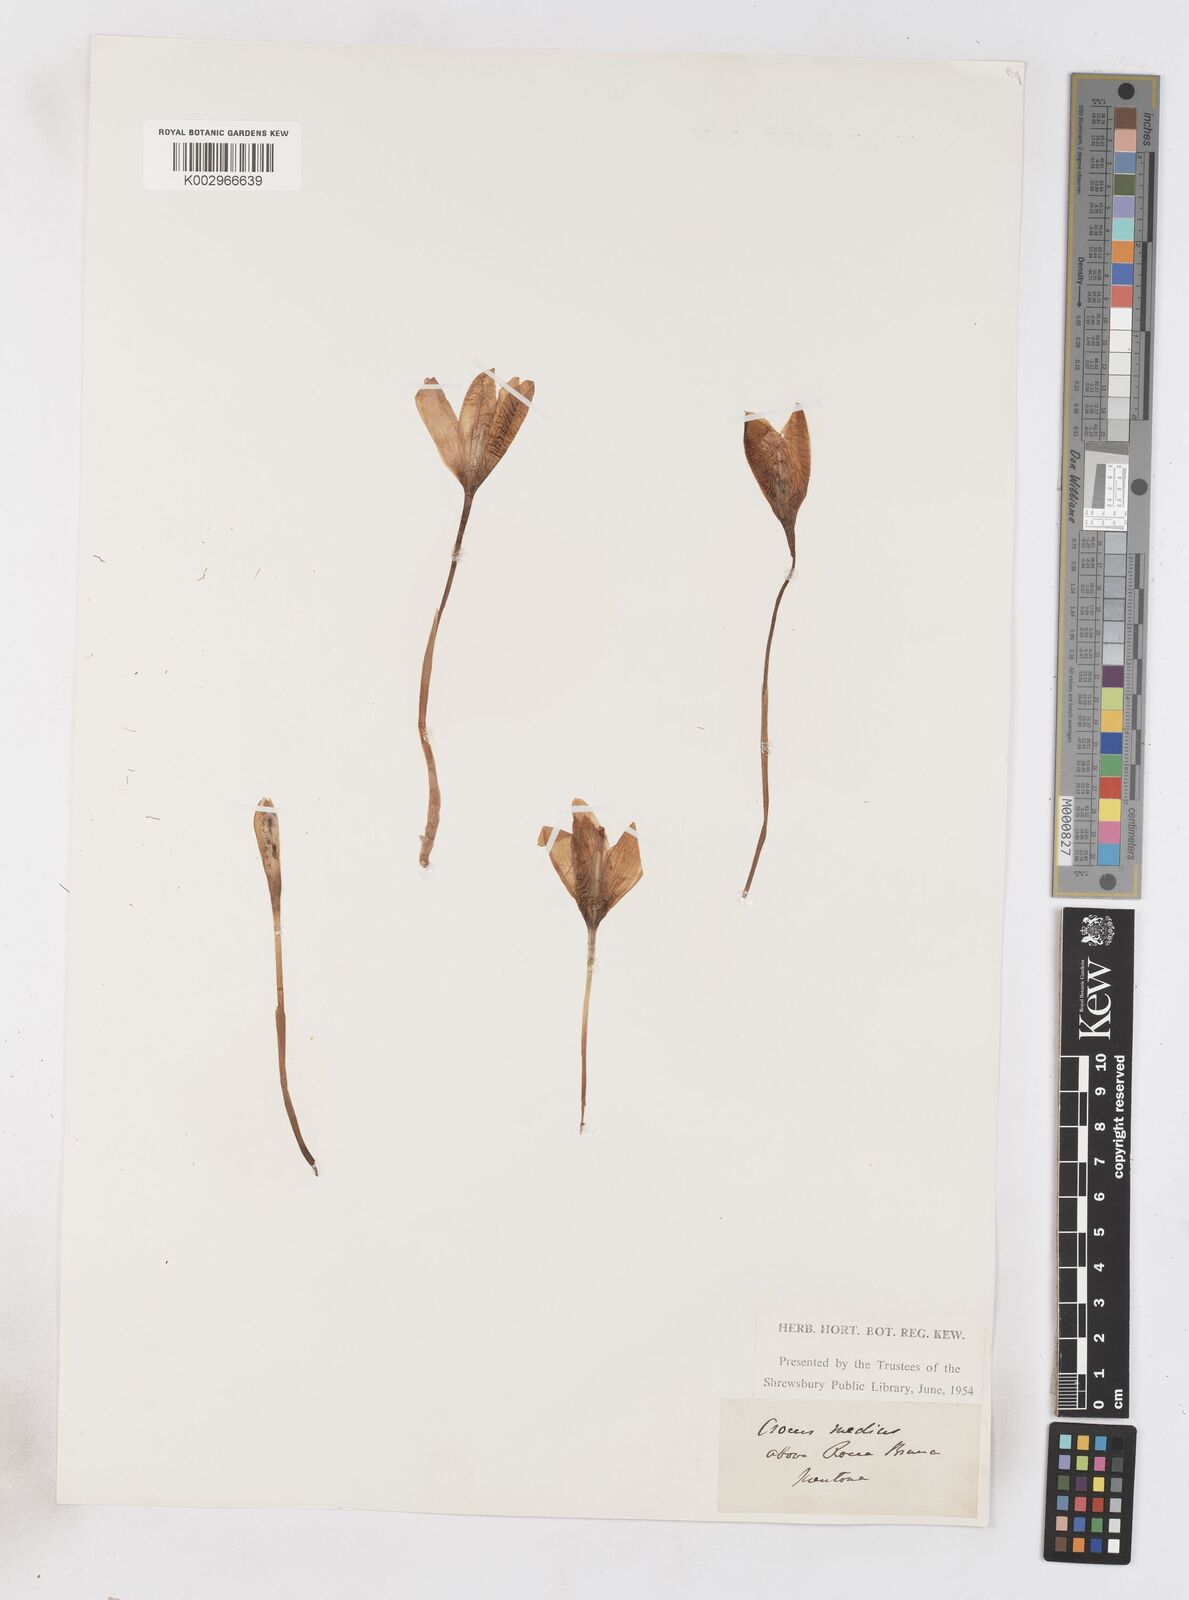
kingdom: Plantae
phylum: Tracheophyta
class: Liliopsida
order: Asparagales
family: Iridaceae
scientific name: Iridaceae
